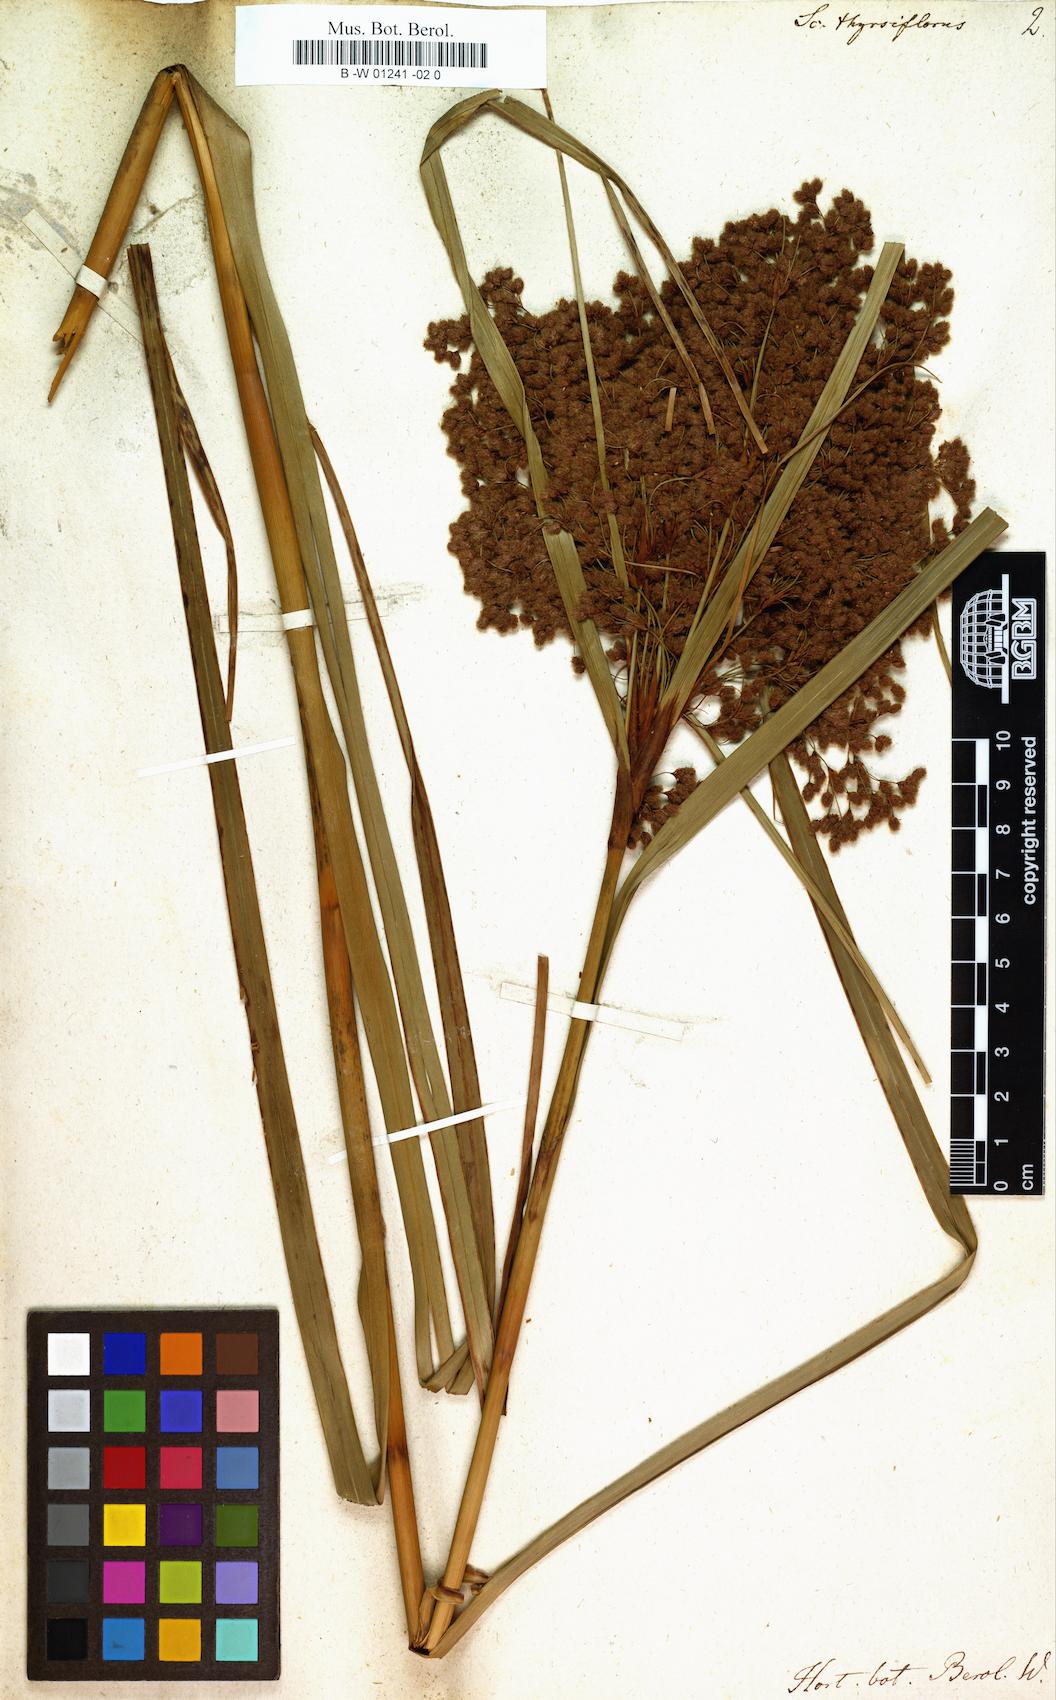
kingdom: Plantae
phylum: Tracheophyta
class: Liliopsida
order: Poales
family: Cyperaceae
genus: Scirpus
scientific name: Scirpus cyperinus
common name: Black-sheathed bulrush
